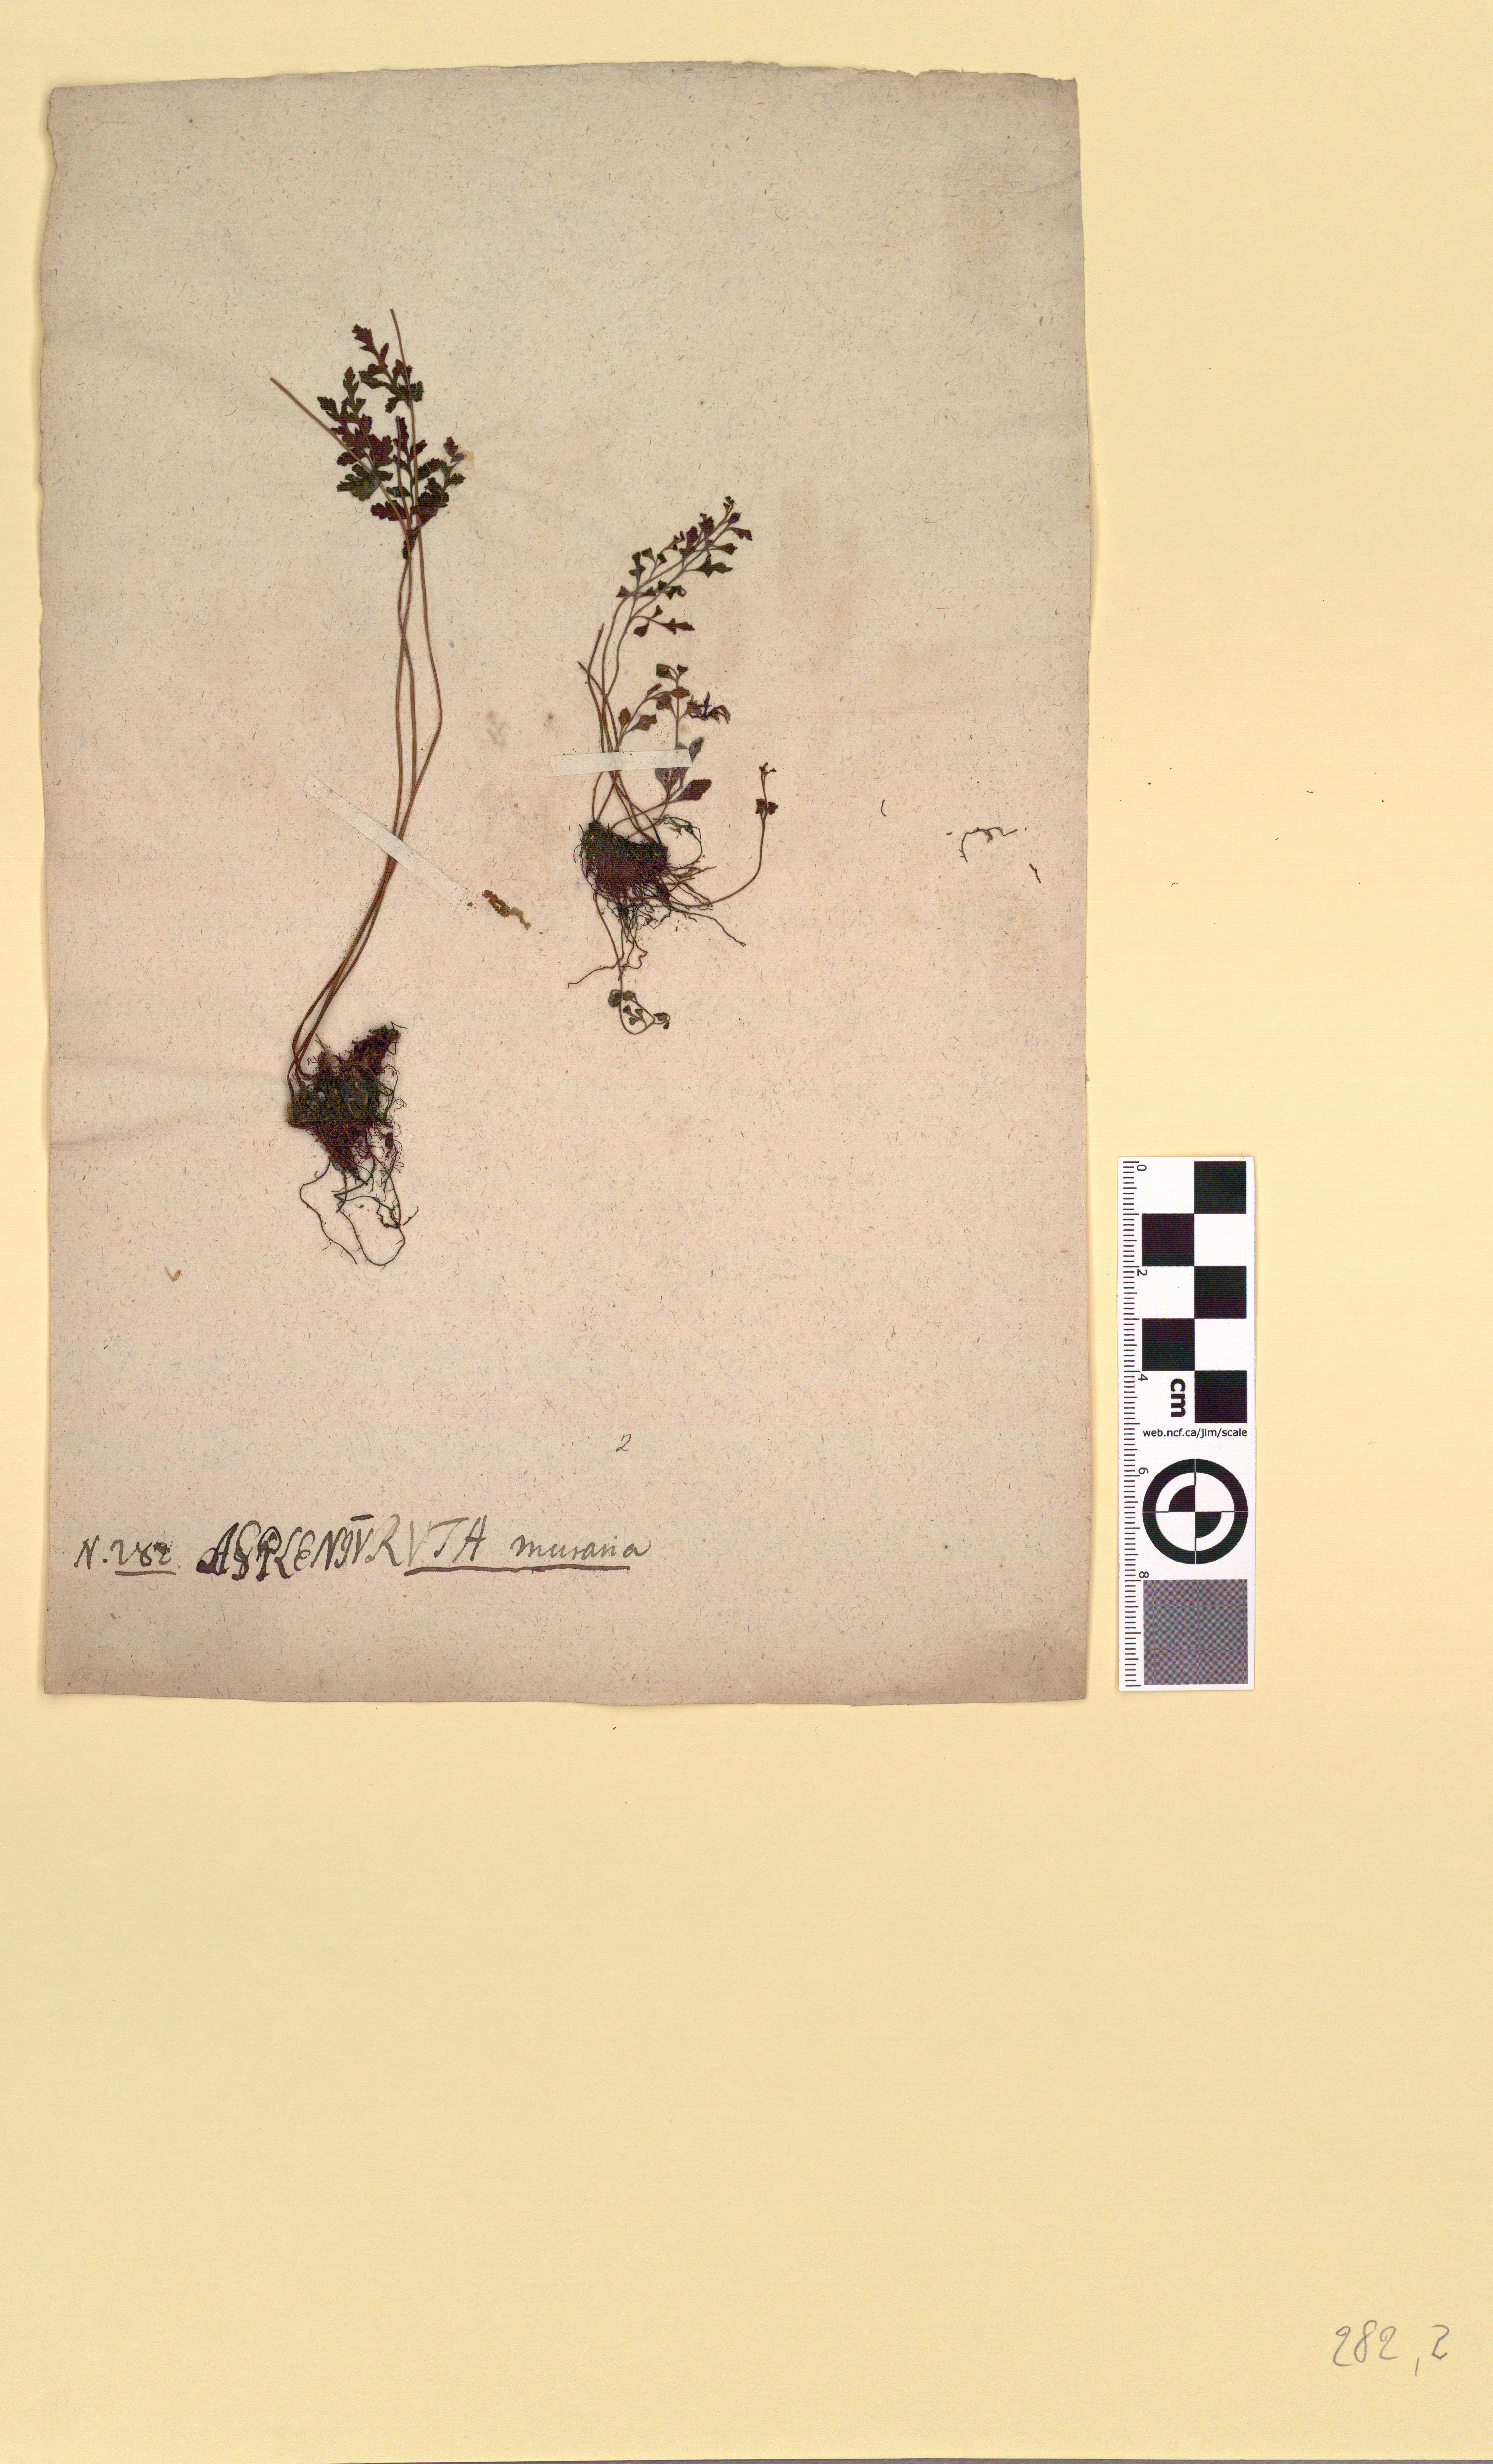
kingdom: Plantae
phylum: Tracheophyta
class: Polypodiopsida
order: Polypodiales
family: Aspleniaceae
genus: Asplenium
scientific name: Asplenium ruta-muraria
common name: Wall-rue
